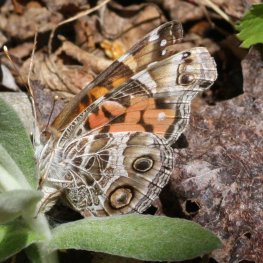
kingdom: Animalia
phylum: Arthropoda
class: Insecta
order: Lepidoptera
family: Nymphalidae
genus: Vanessa
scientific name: Vanessa virginiensis
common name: American Lady
